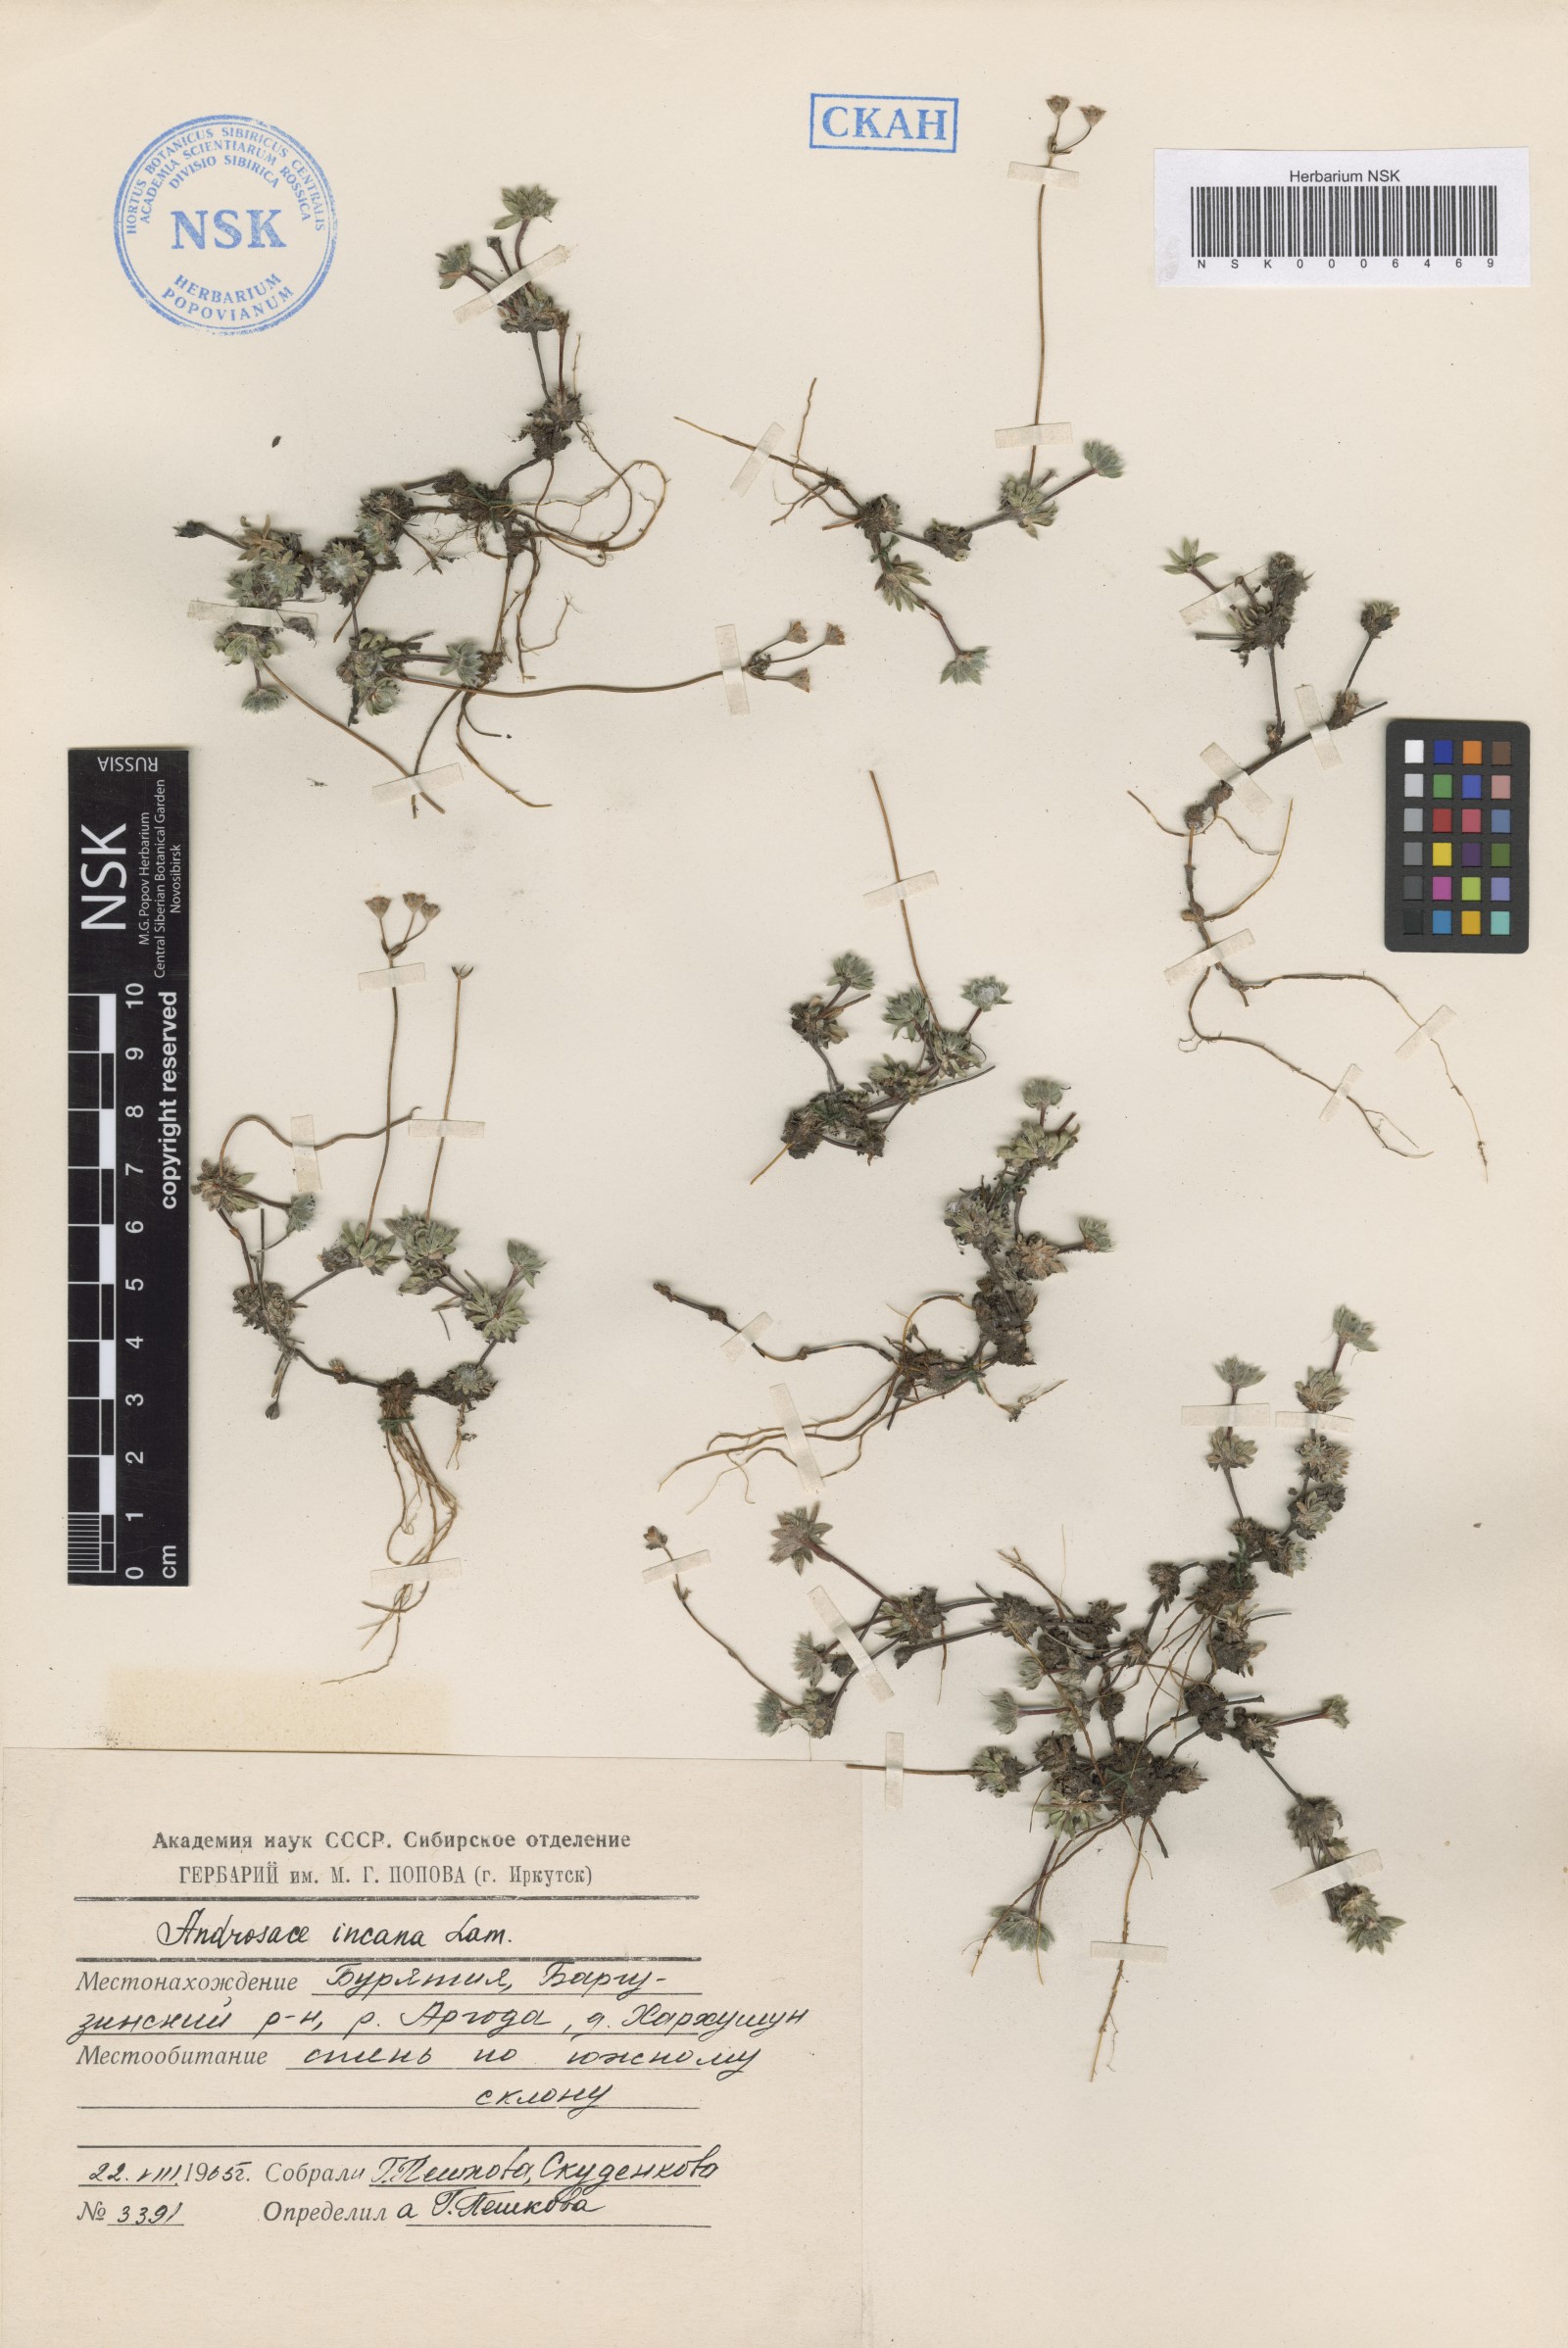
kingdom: Plantae
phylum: Tracheophyta
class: Magnoliopsida
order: Ericales
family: Primulaceae
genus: Androsace
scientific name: Androsace incana
